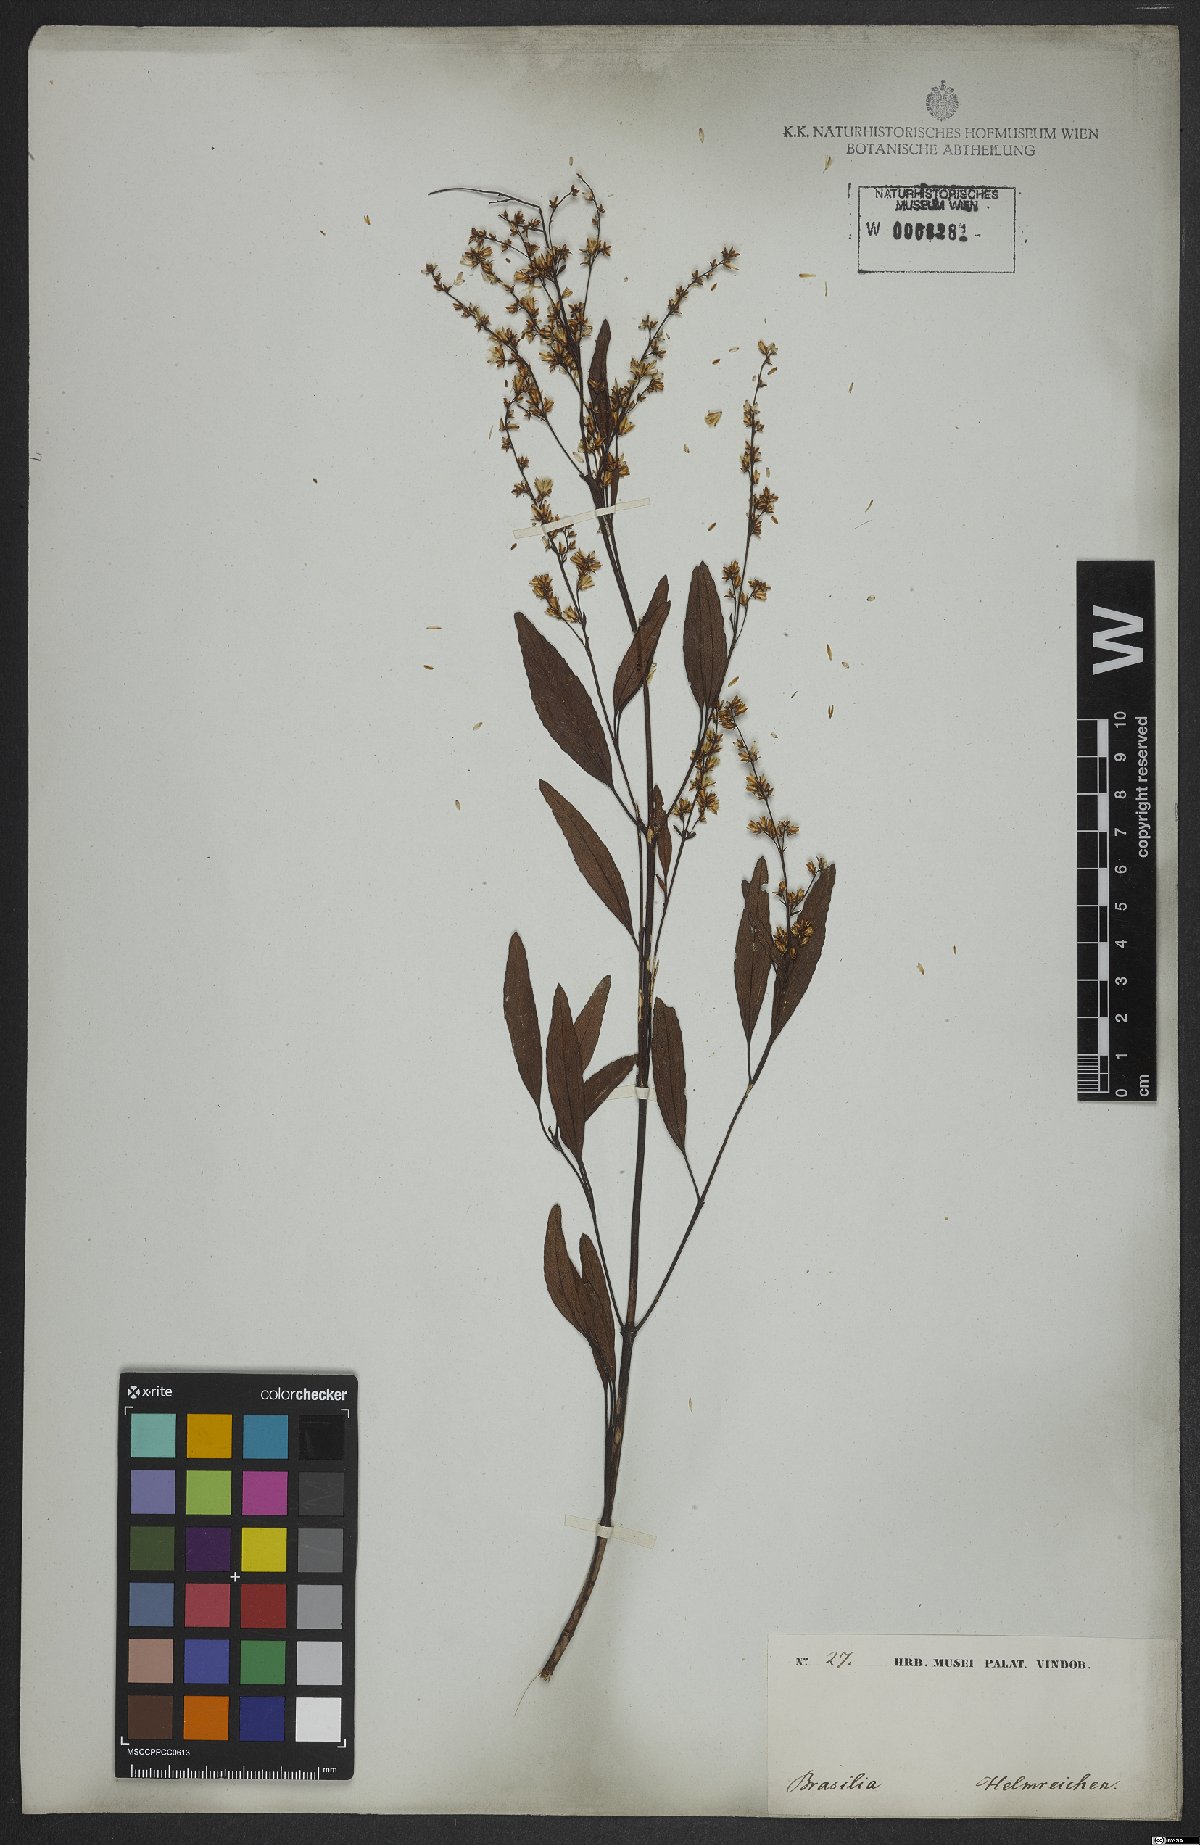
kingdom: Plantae
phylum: Tracheophyta
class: Magnoliopsida
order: Asterales
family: Asteraceae
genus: Ophryosporus
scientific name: Ophryosporus freyreysi
